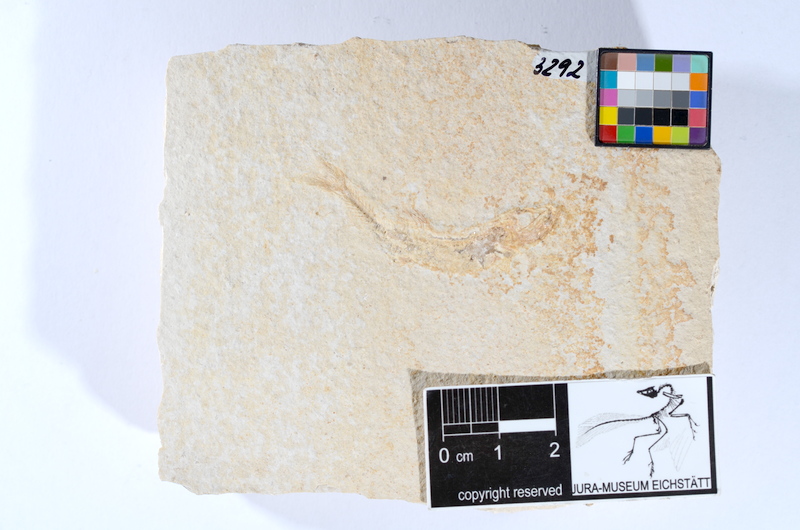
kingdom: Animalia
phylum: Chordata
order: Salmoniformes
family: Orthogonikleithridae
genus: Leptolepides
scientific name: Leptolepides sprattiformis
